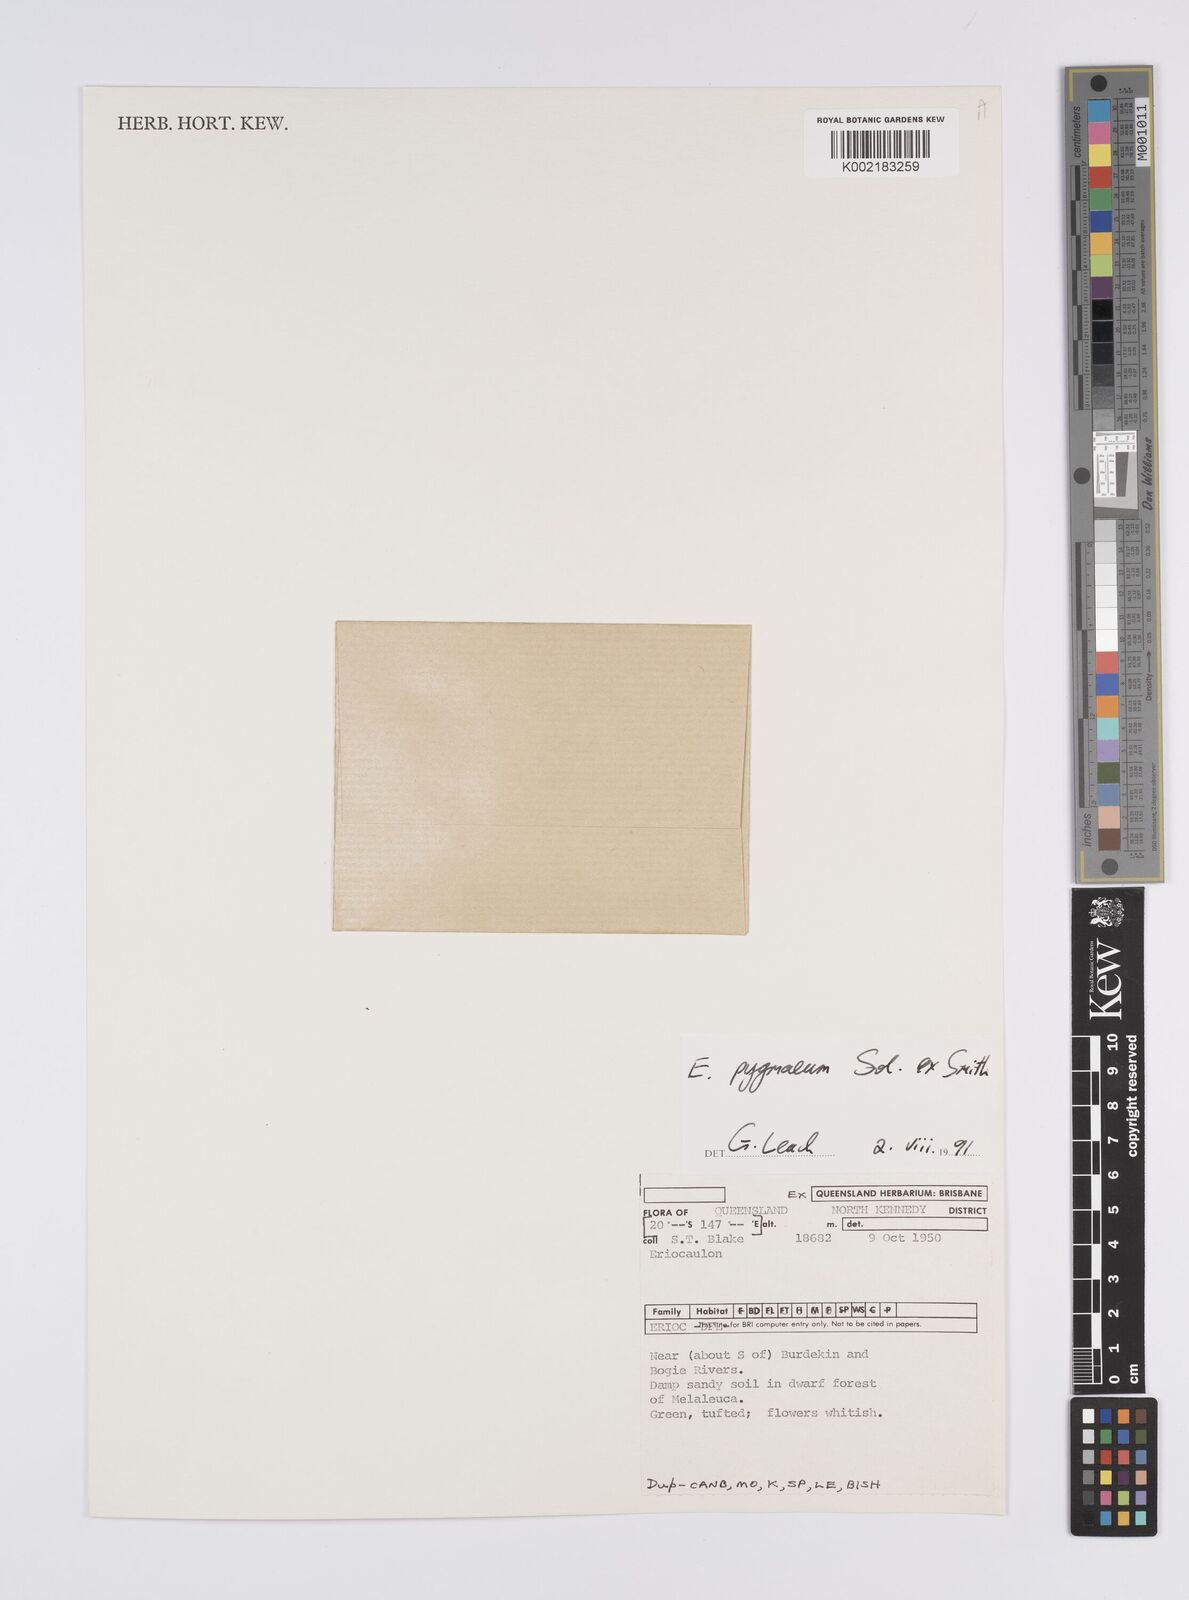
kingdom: Plantae
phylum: Tracheophyta
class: Liliopsida
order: Poales
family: Eriocaulaceae
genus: Paepalanthus
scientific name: Paepalanthus bifidus
